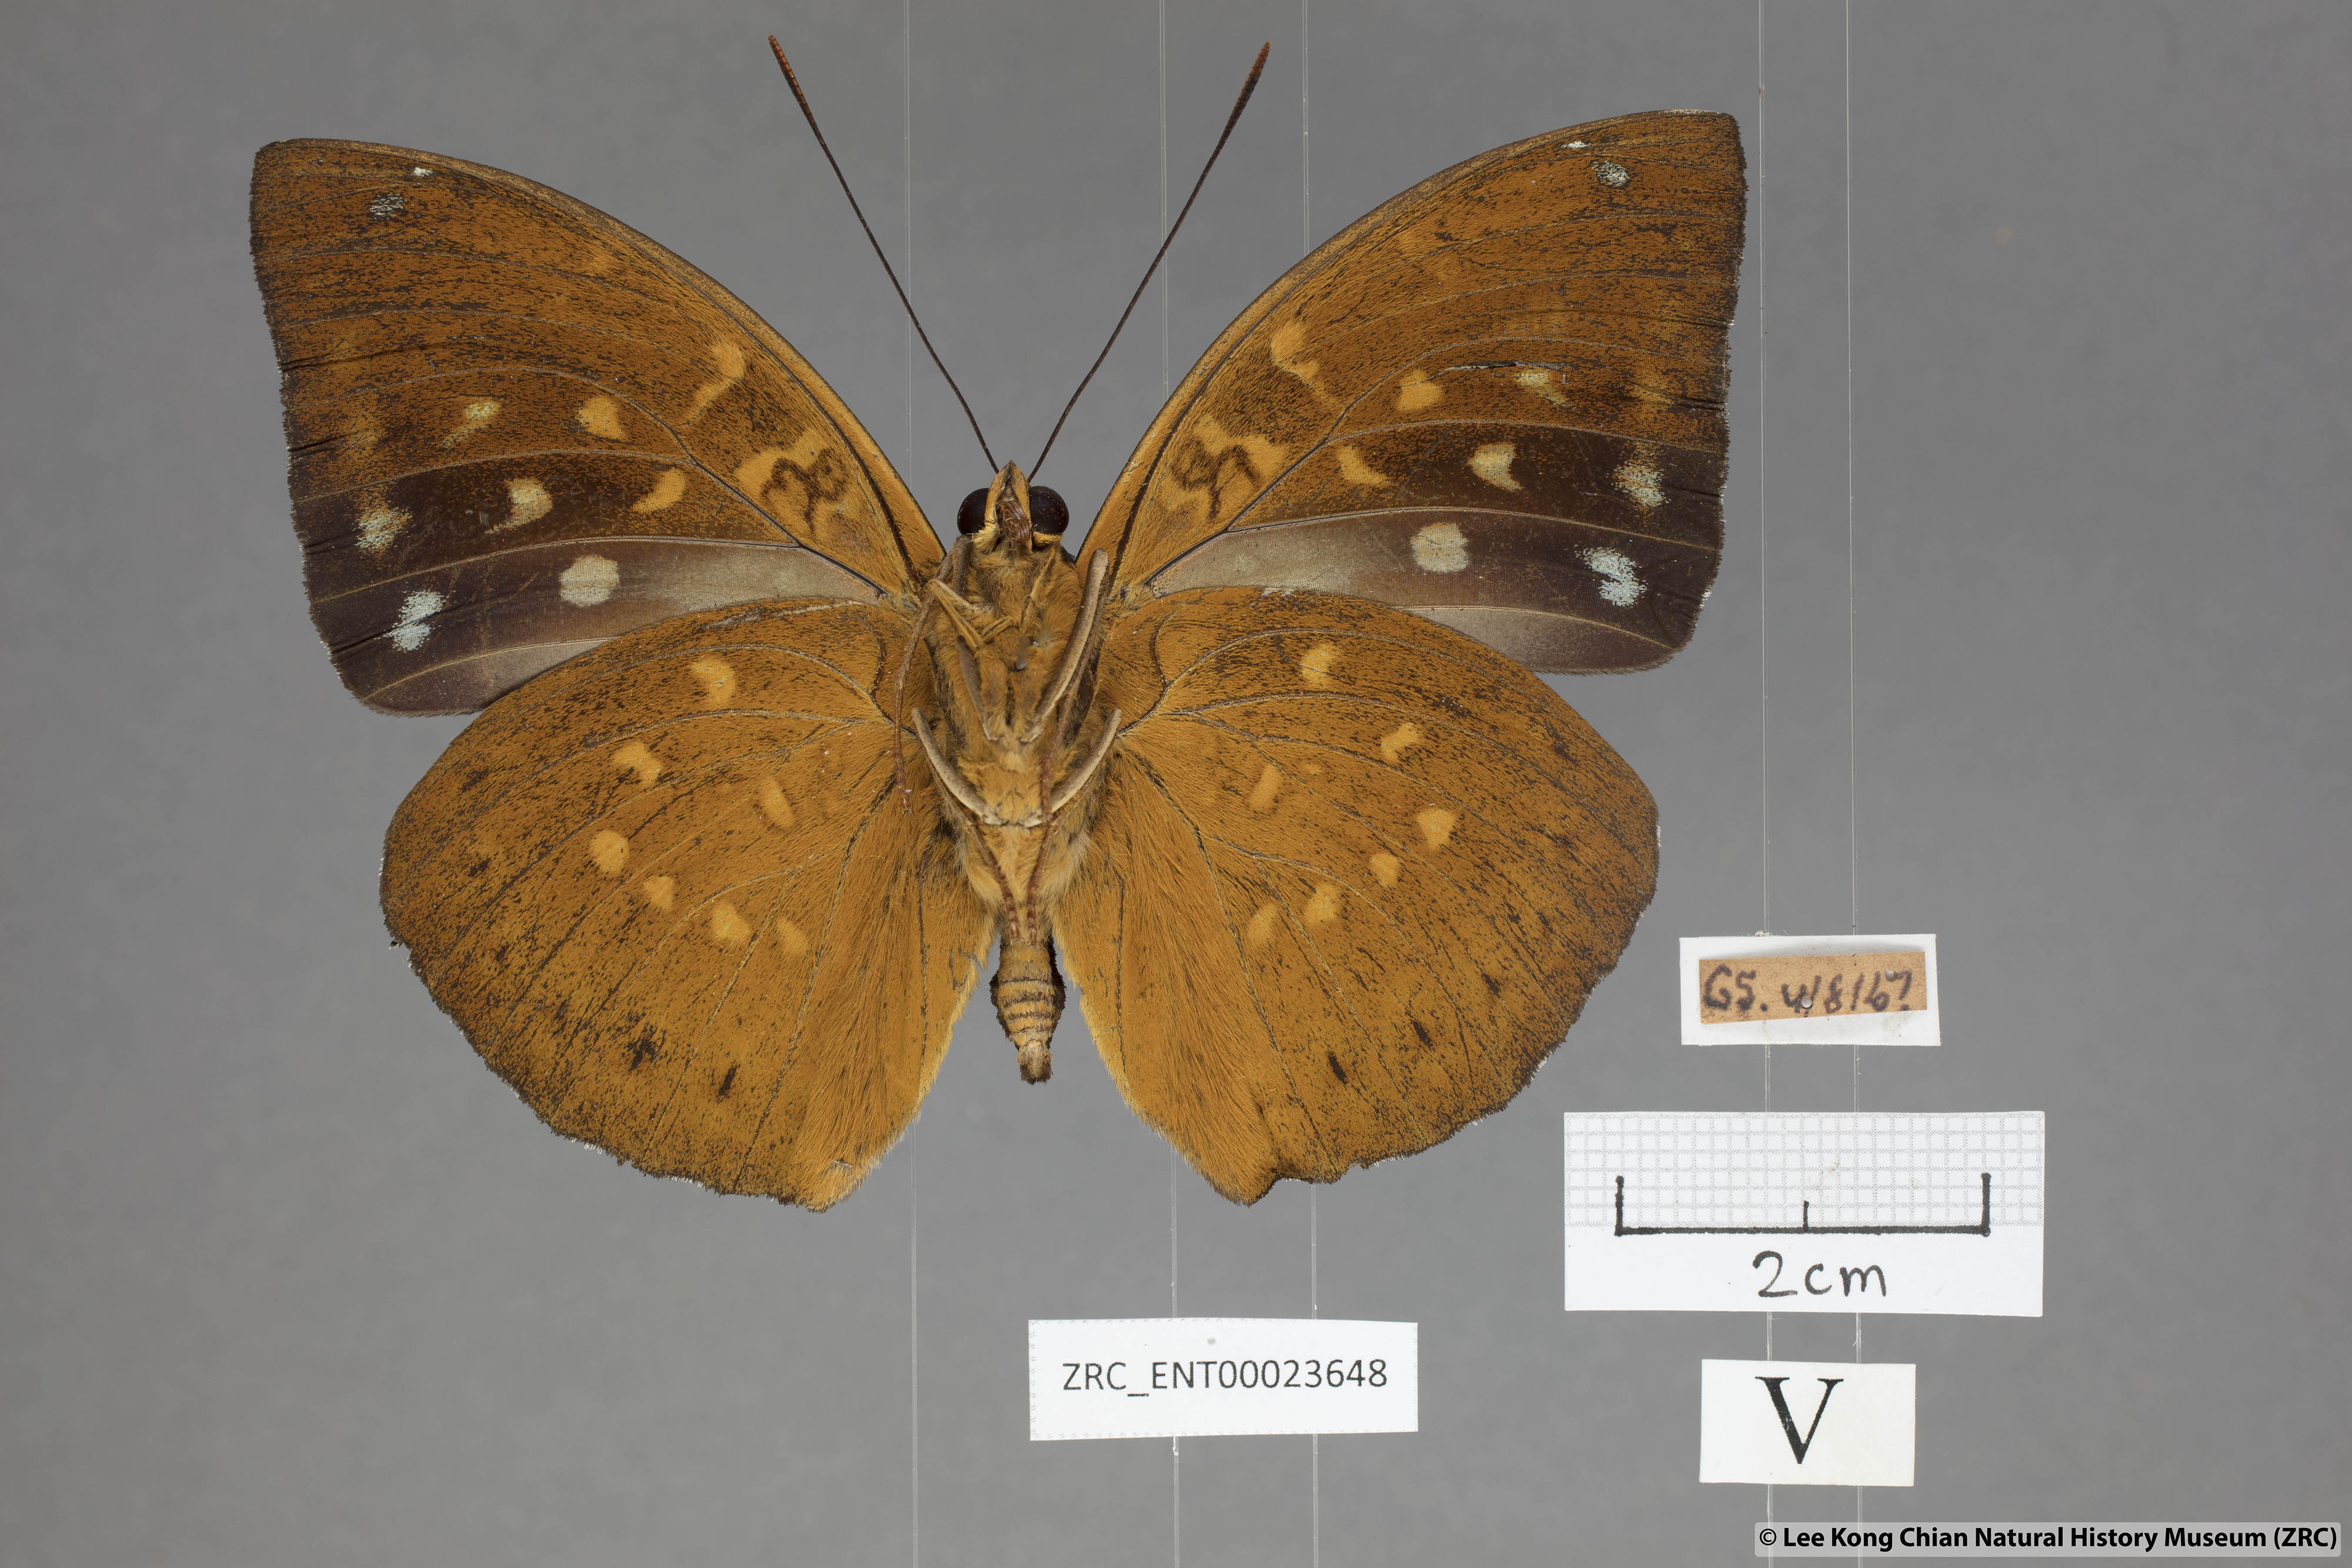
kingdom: Animalia
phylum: Arthropoda
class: Insecta
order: Lepidoptera
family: Nymphalidae
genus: Lexias
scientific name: Lexias pardalis
